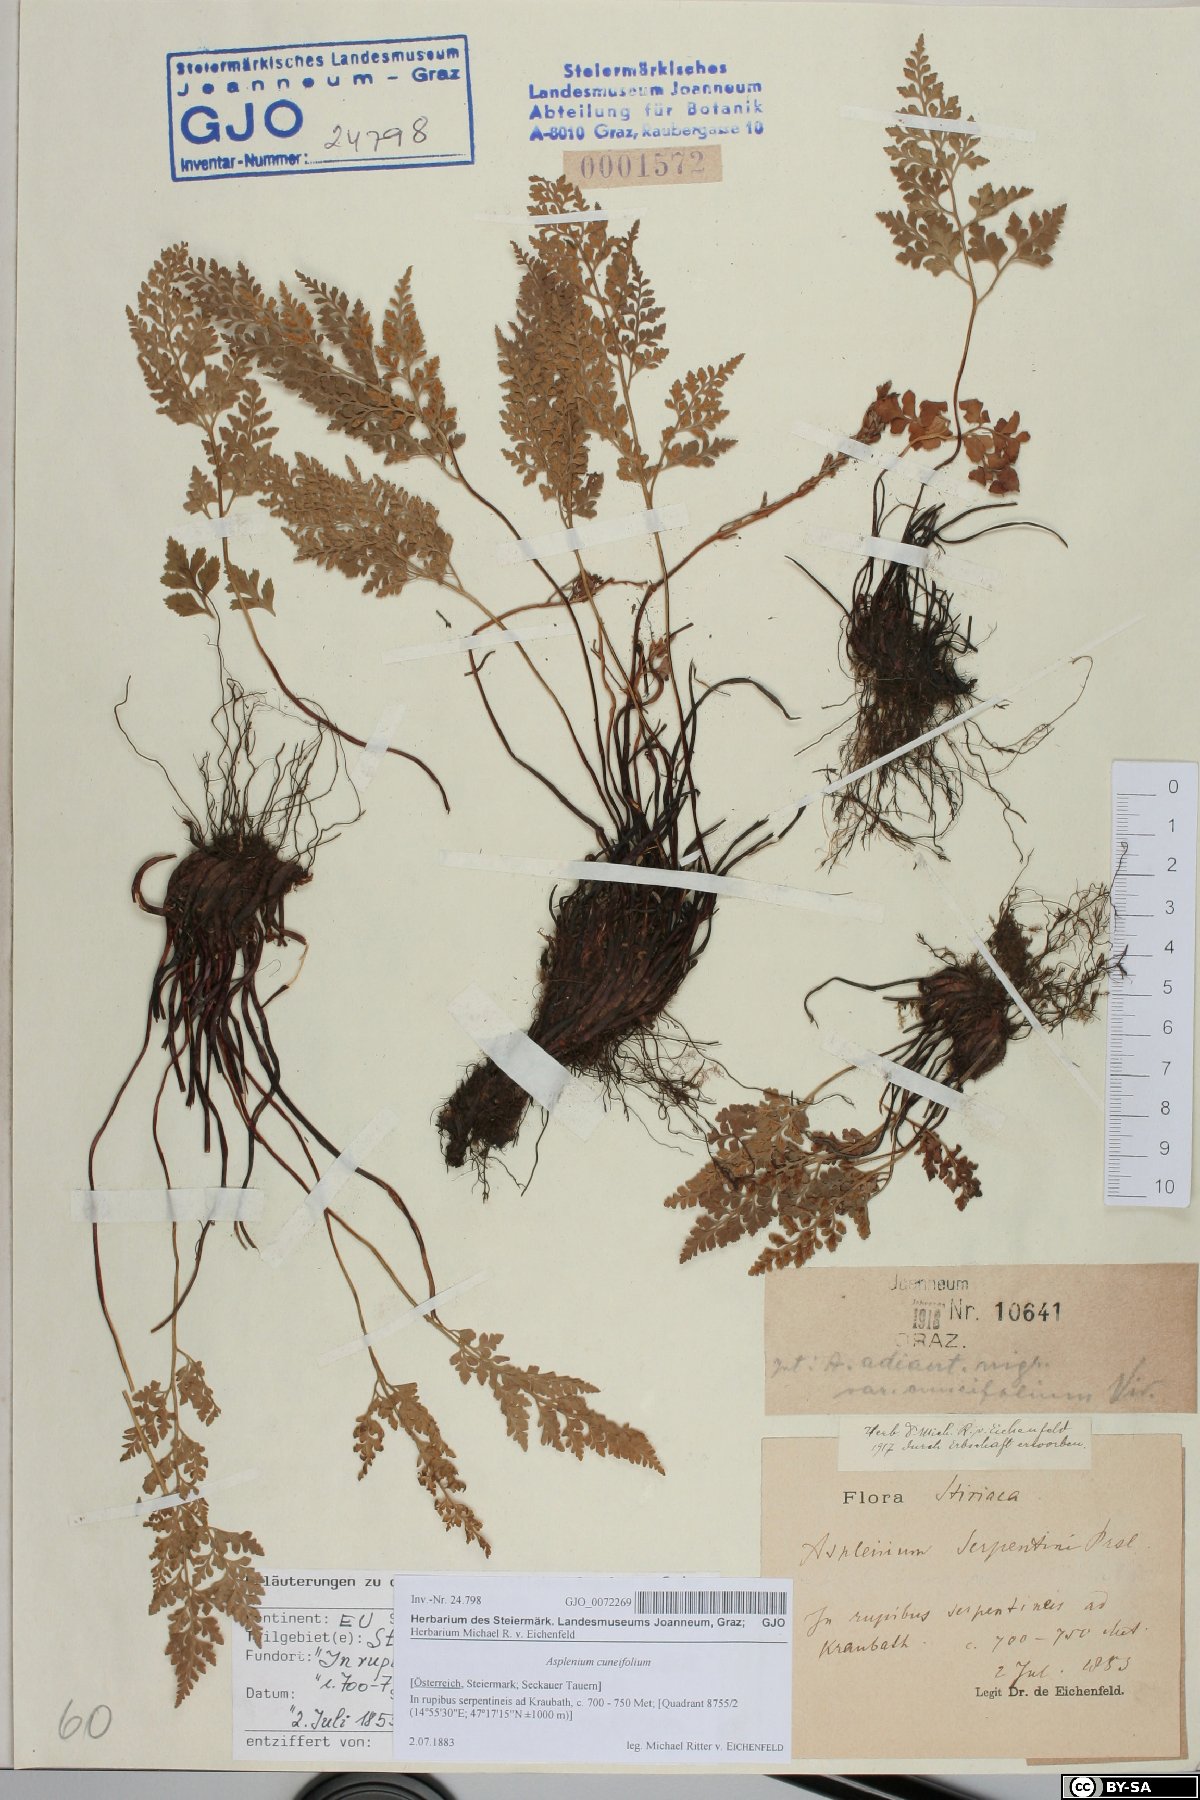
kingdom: Plantae
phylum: Tracheophyta
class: Polypodiopsida
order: Polypodiales
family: Aspleniaceae
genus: Asplenium
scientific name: Asplenium cuneifolium
